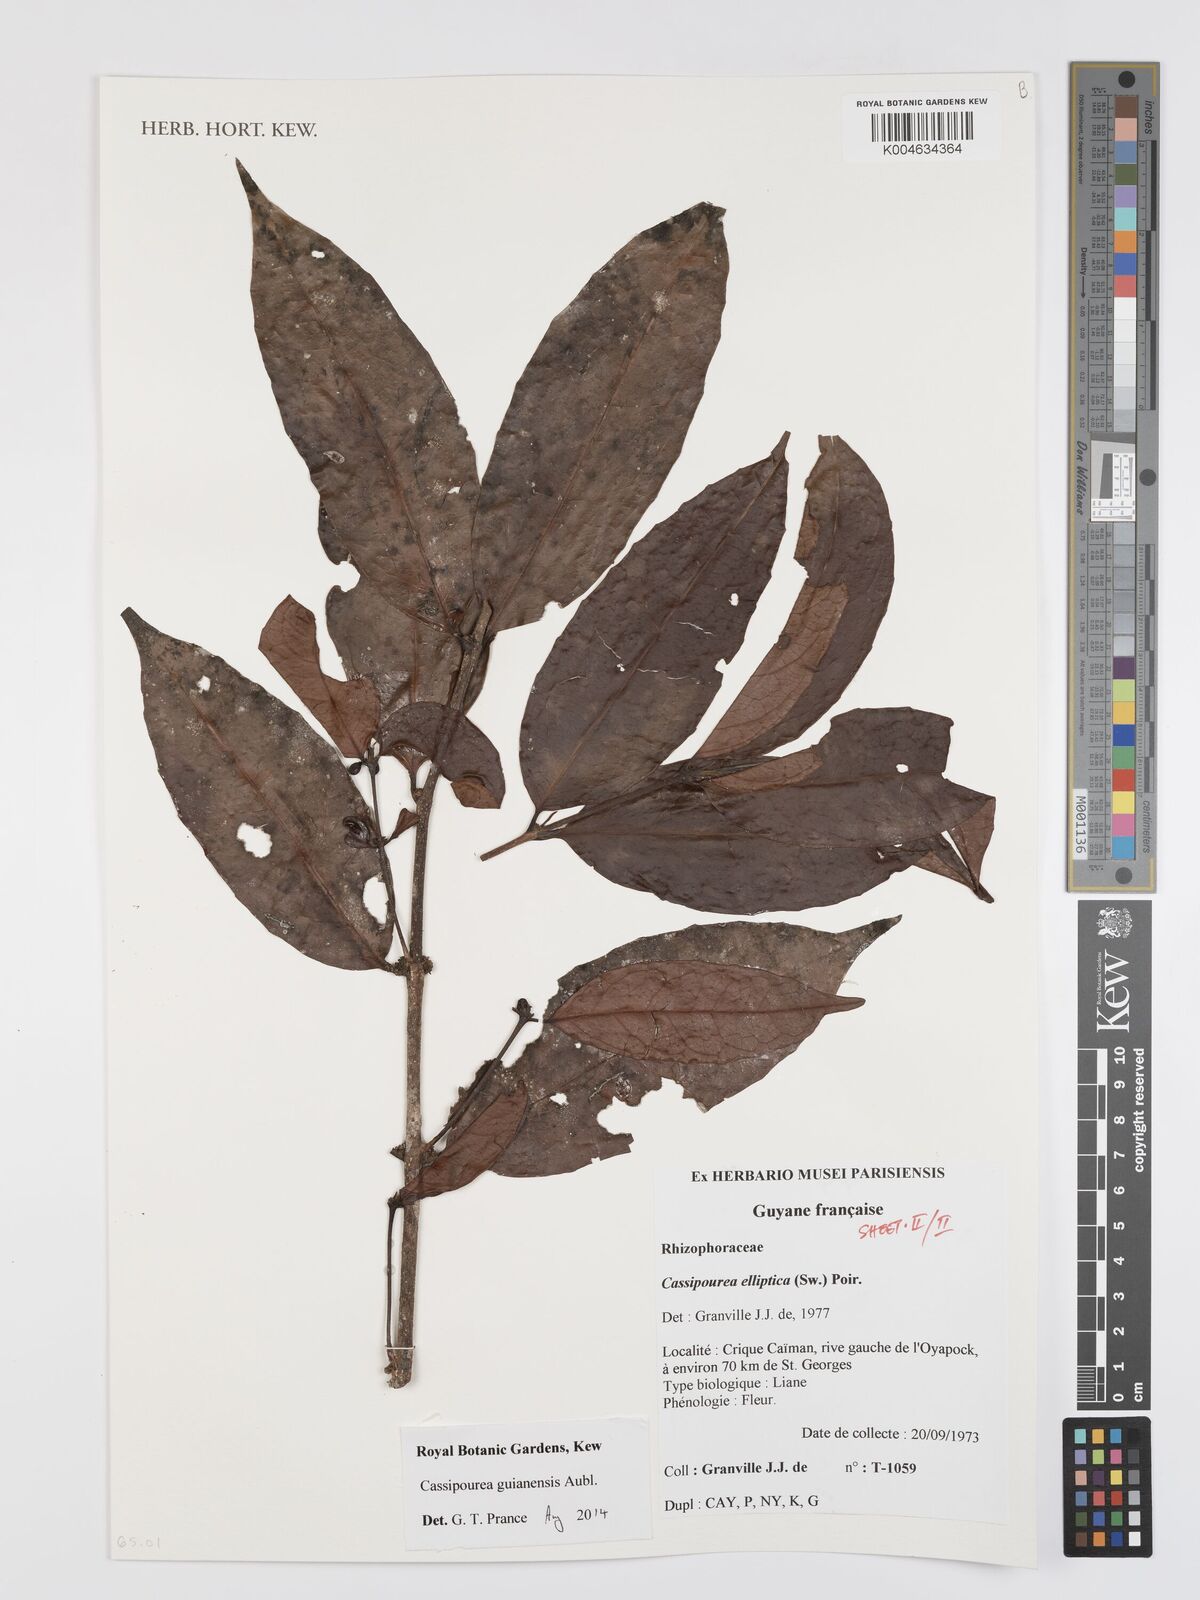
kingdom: Plantae
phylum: Tracheophyta
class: Magnoliopsida
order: Malpighiales
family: Rhizophoraceae
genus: Cassipourea
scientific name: Cassipourea guianensis
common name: Bastard waterwood
